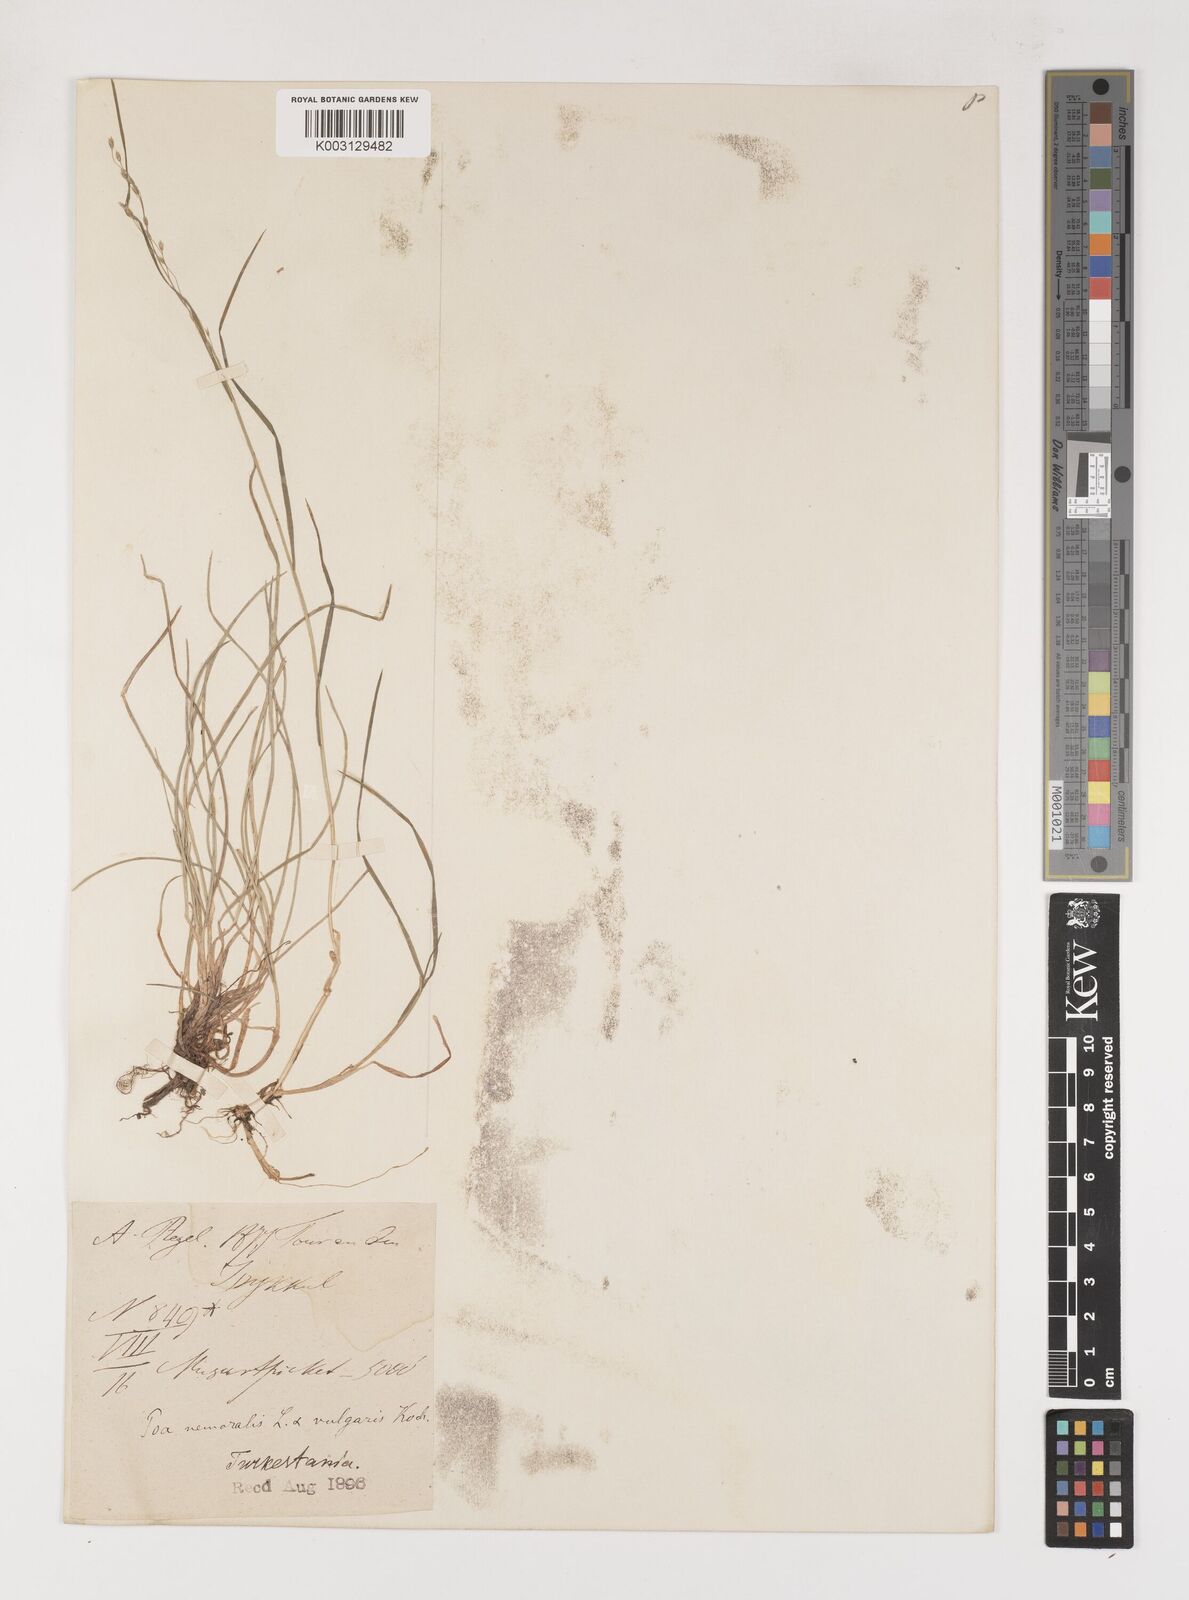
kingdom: Plantae
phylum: Tracheophyta
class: Liliopsida
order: Poales
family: Poaceae
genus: Poa
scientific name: Poa glauca
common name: Glaucous bluegrass
